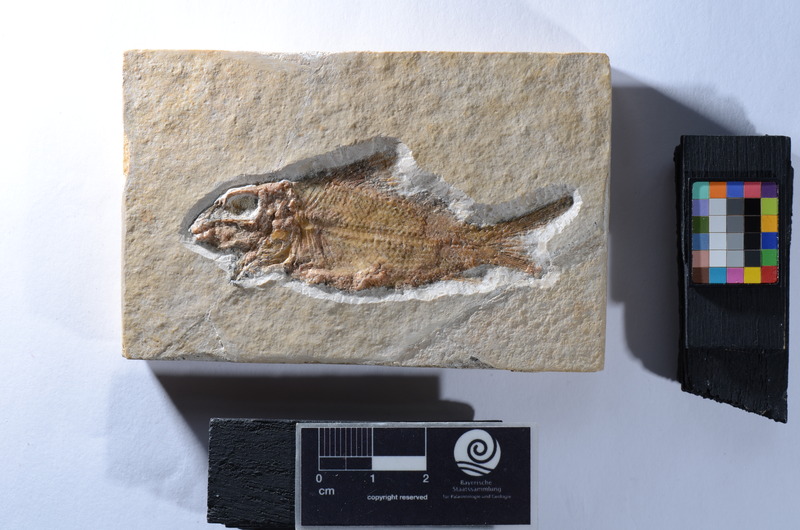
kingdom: Animalia
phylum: Chordata
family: Eurycormidae
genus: Eurycormus
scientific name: Eurycormus speciosus
